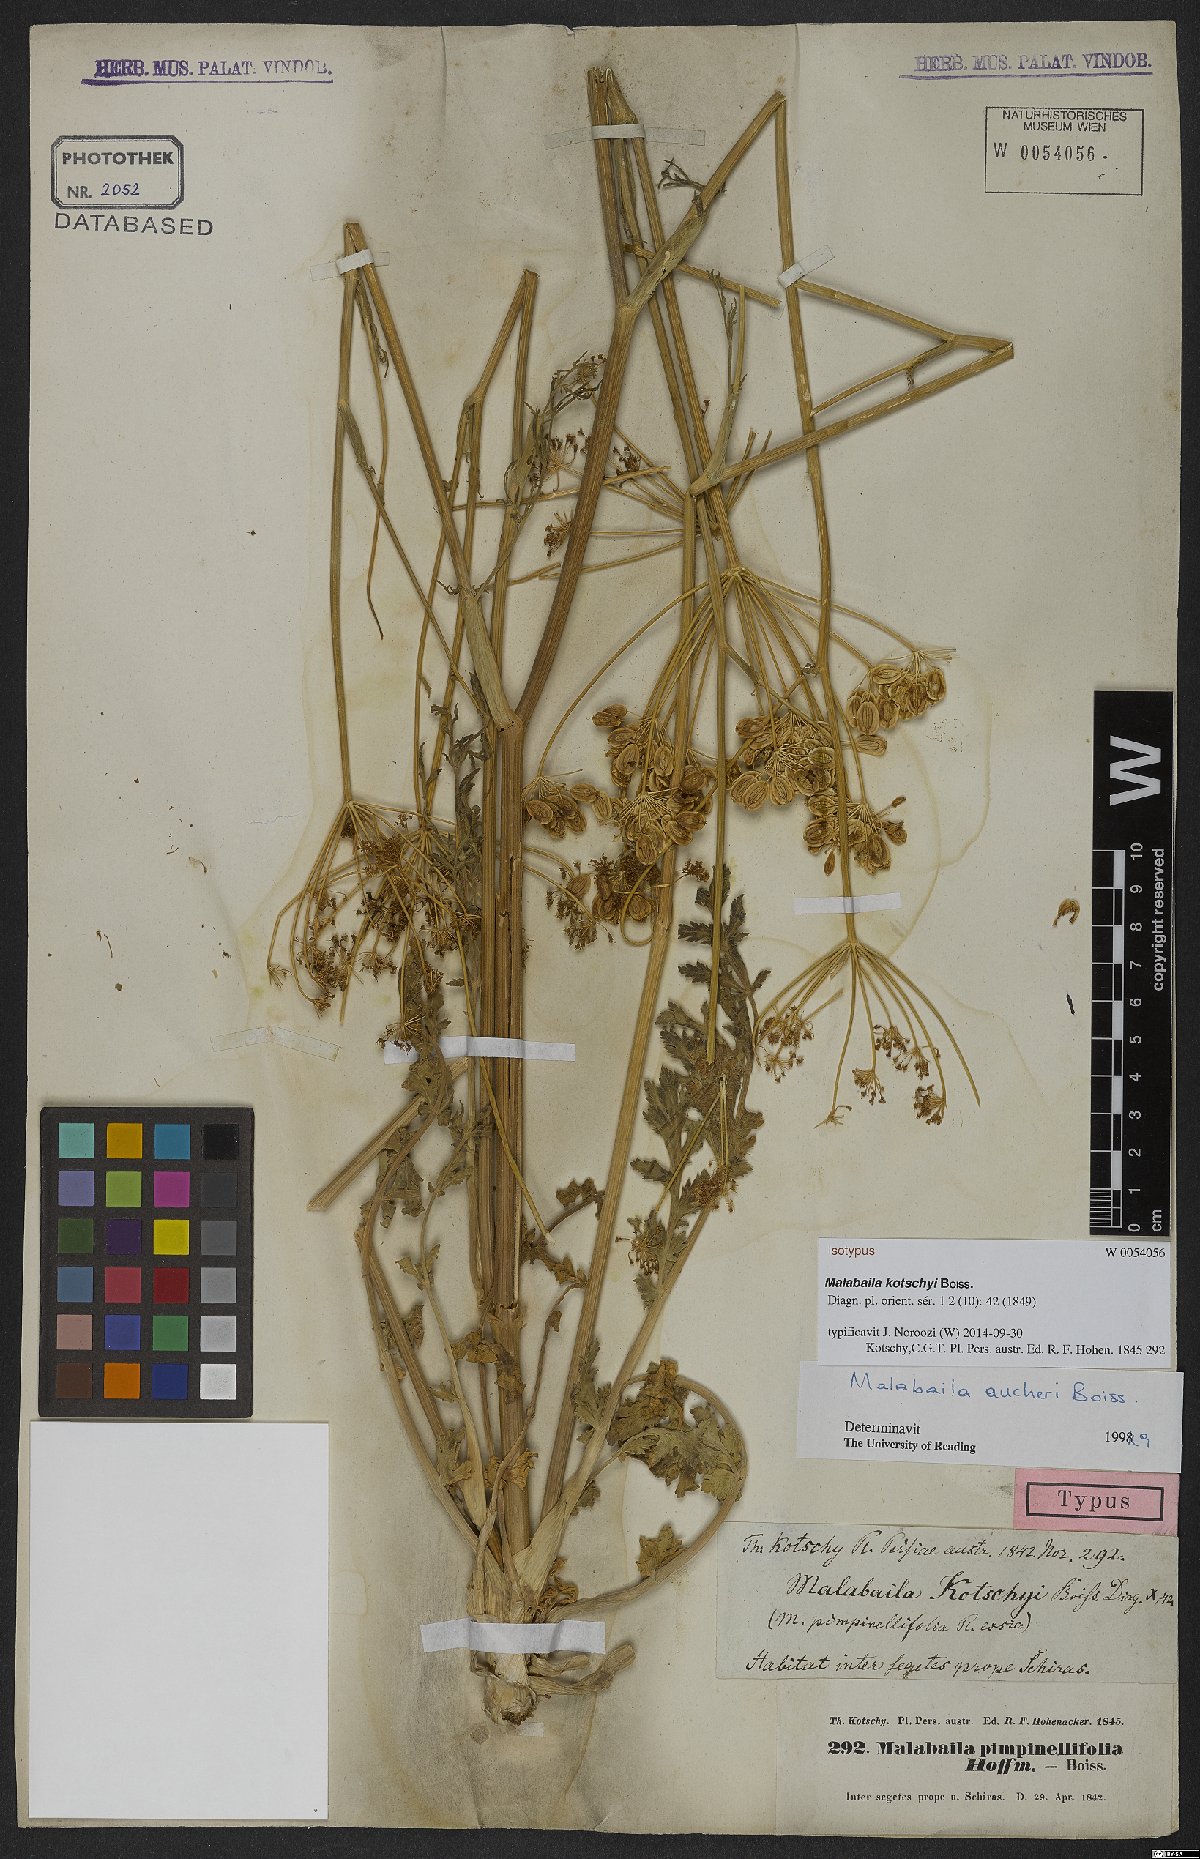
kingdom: Plantae
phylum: Tracheophyta
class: Magnoliopsida
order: Apiales
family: Apiaceae
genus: Leiotulus
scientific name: Leiotulus kotschyi
